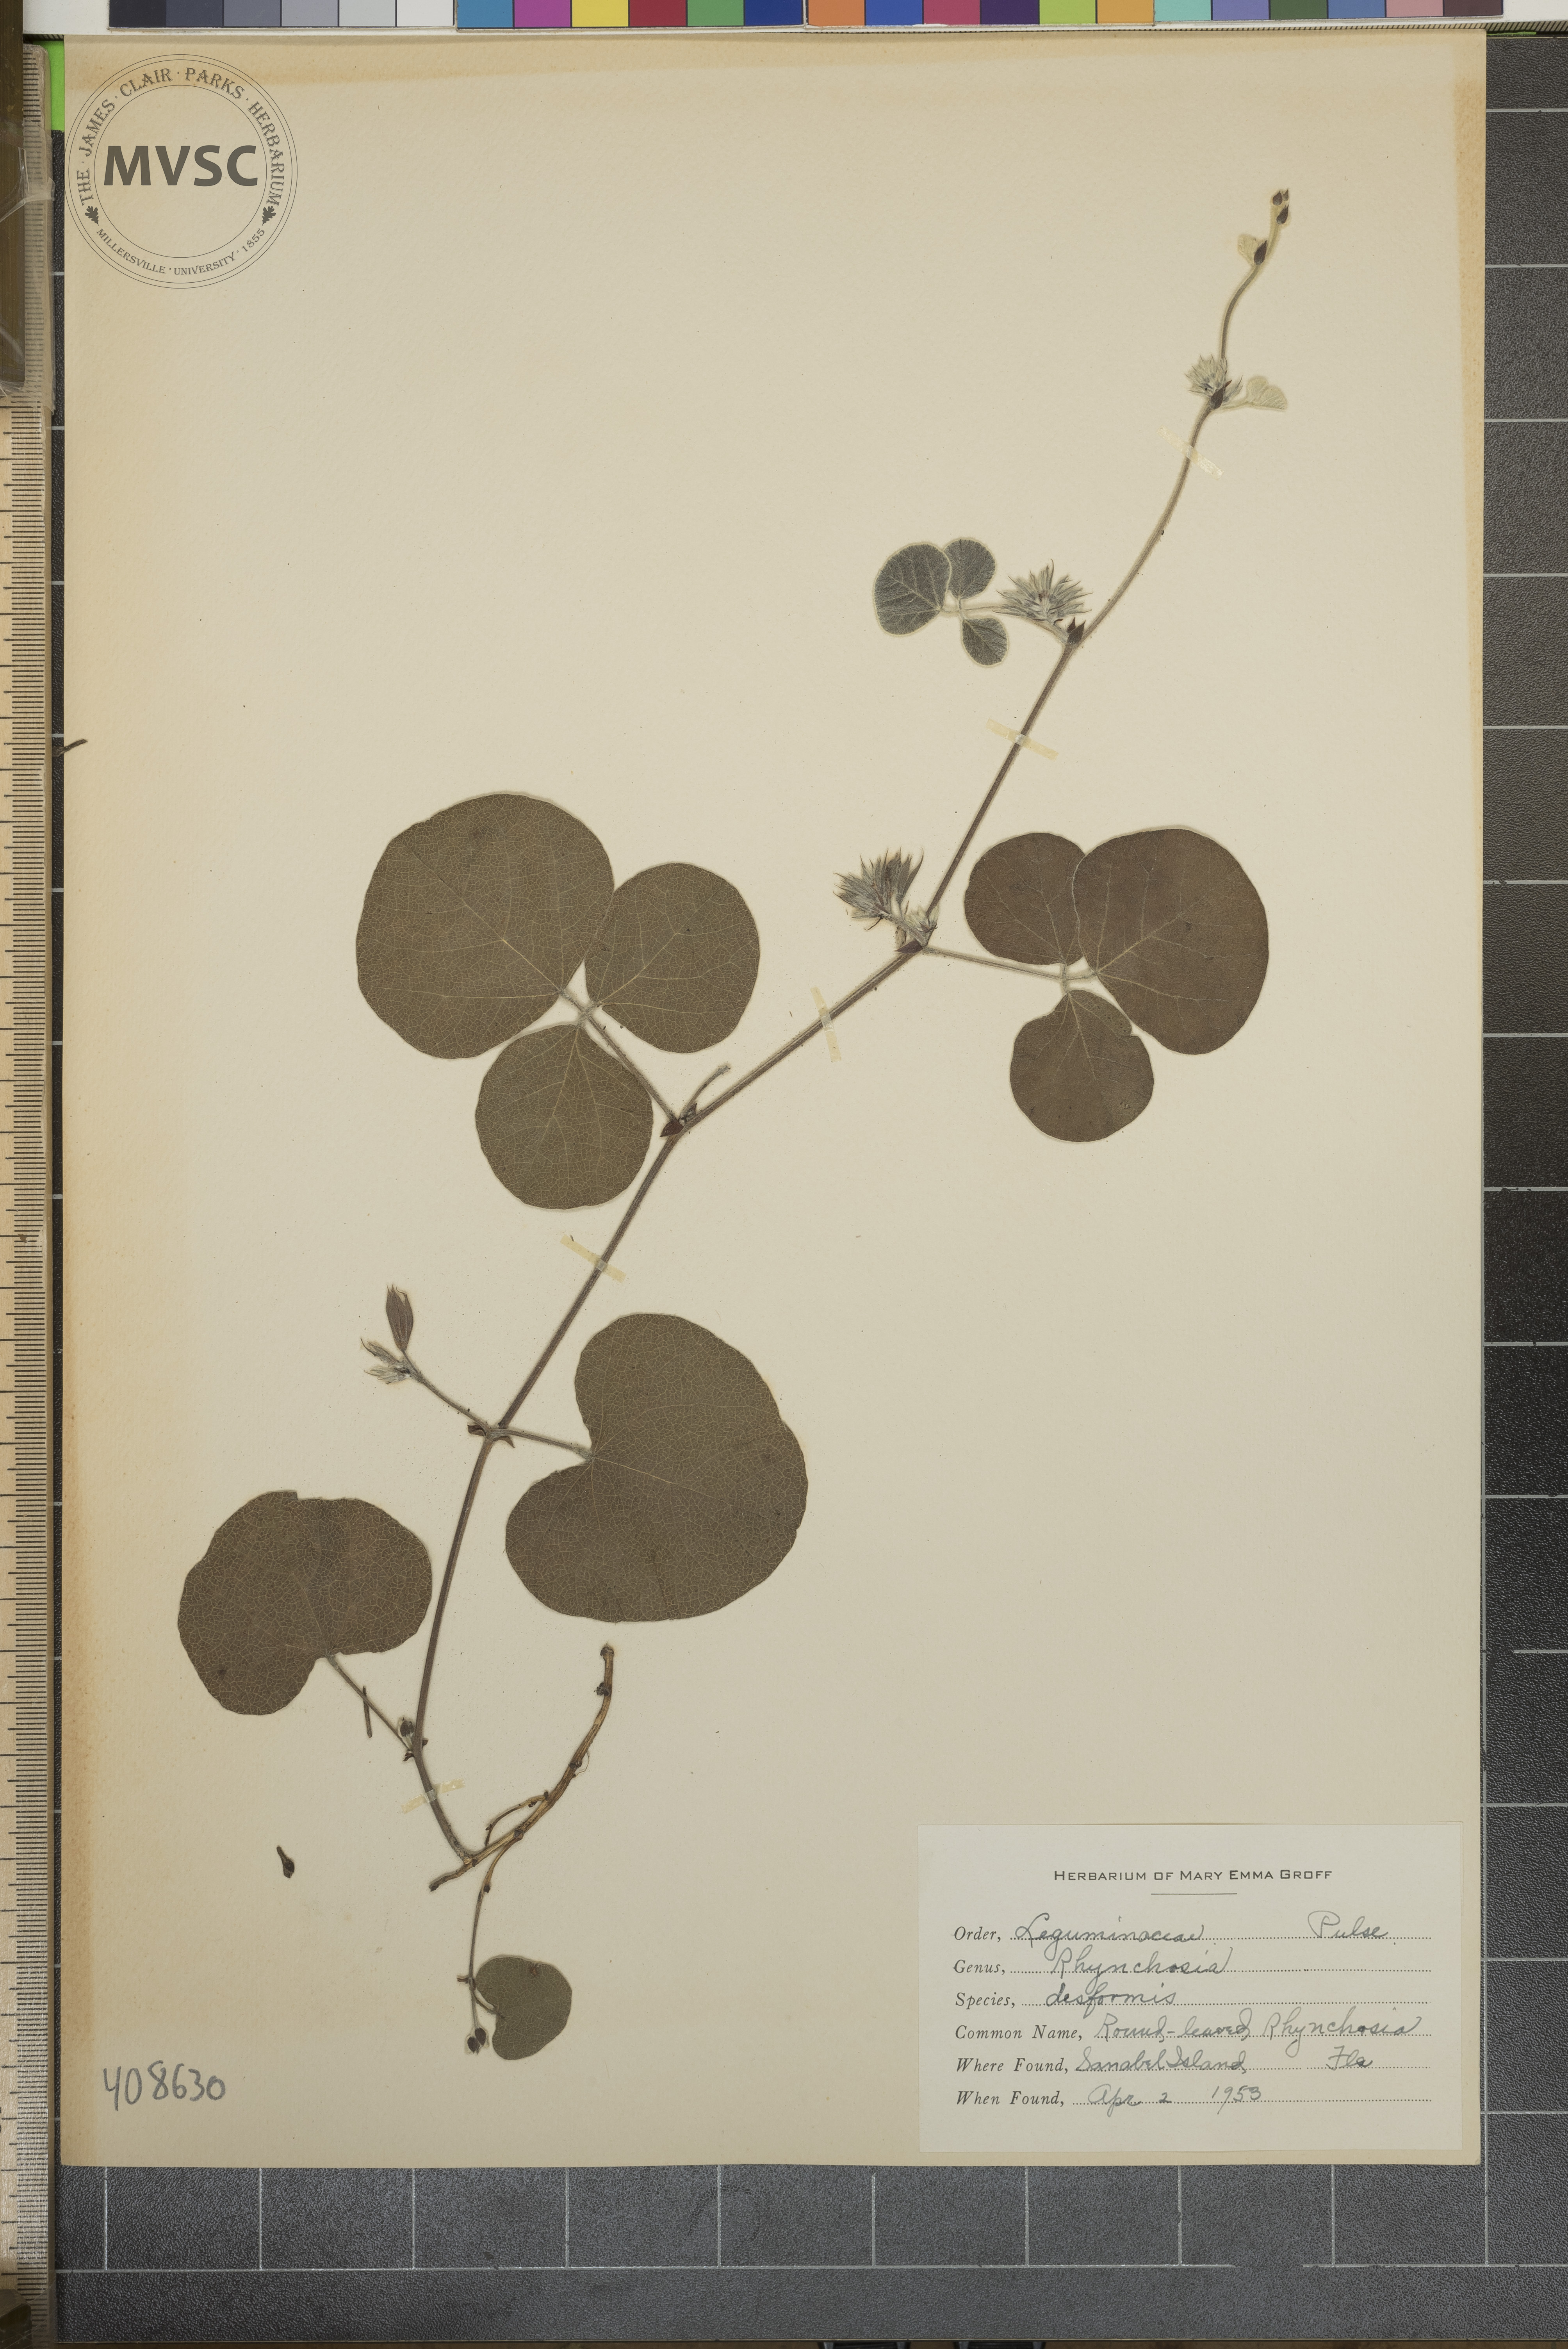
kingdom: Plantae
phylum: Tracheophyta
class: Magnoliopsida
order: Fabales
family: Fabaceae
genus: Rhynchosia
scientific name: Rhynchosia difformis
